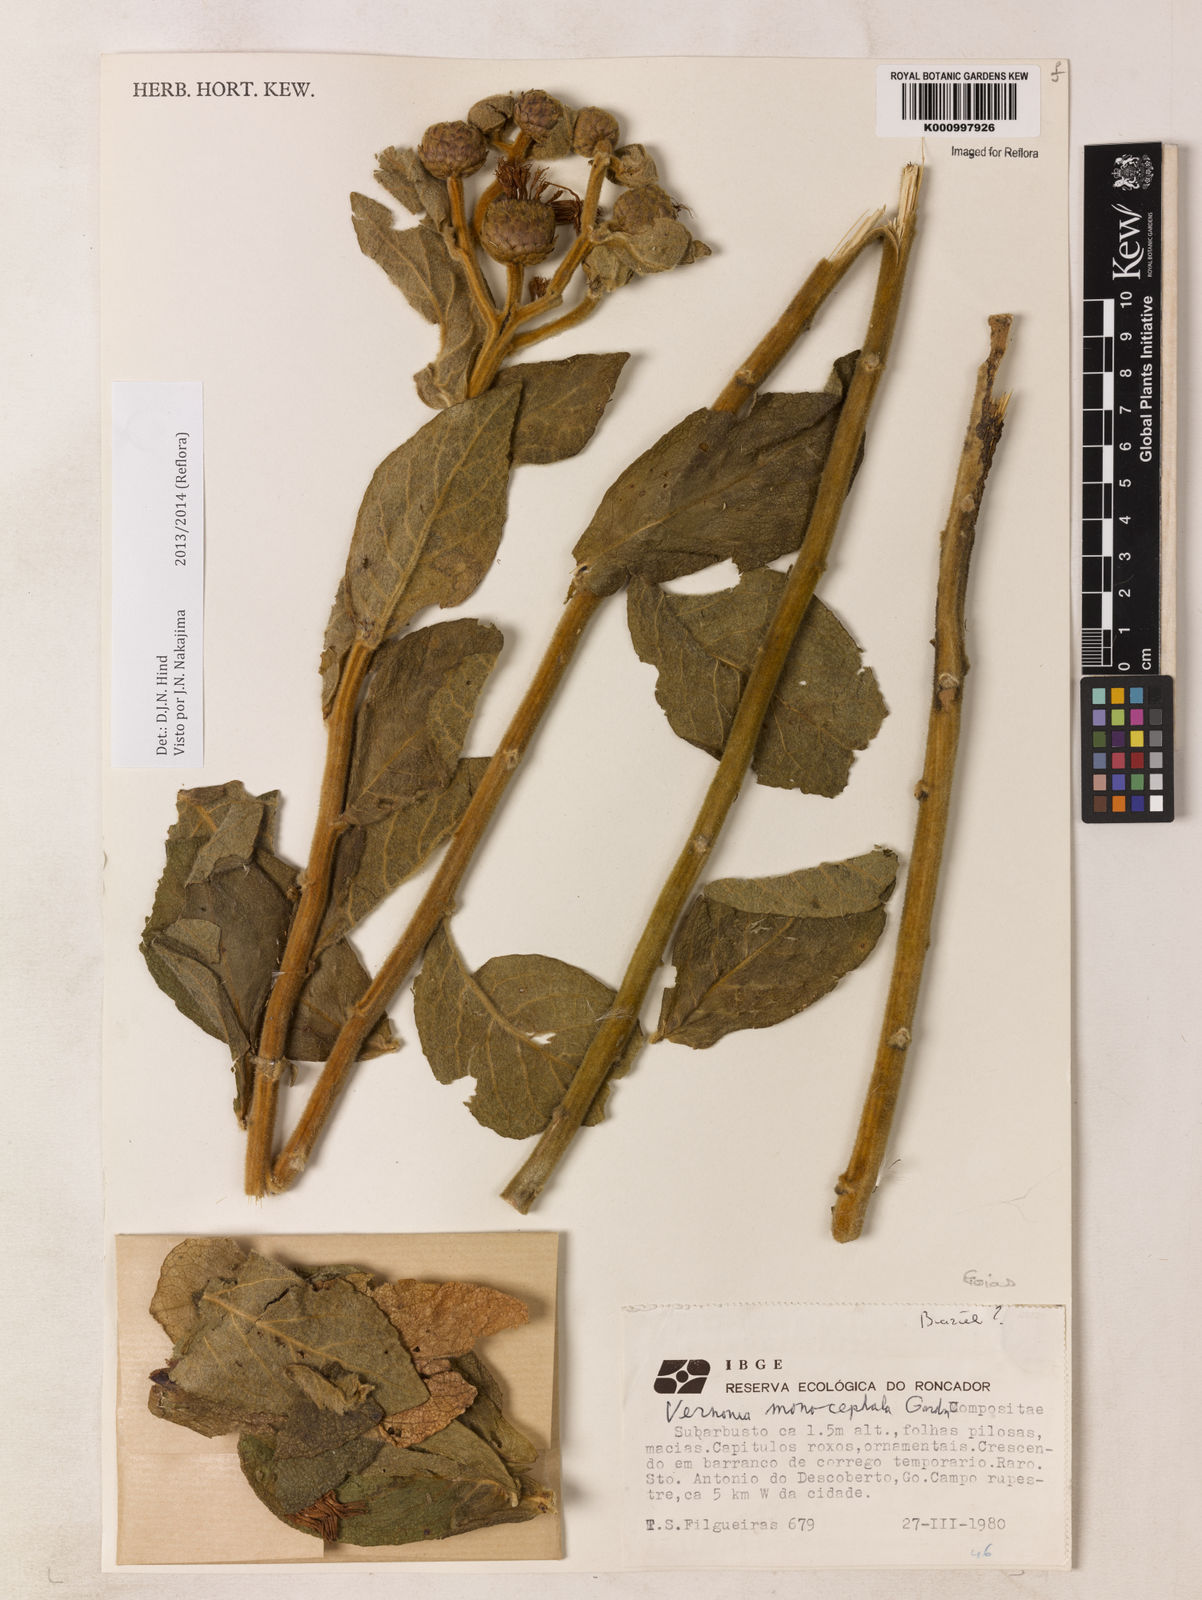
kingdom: Plantae
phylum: Tracheophyta
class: Magnoliopsida
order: Asterales
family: Asteraceae
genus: Lessingianthus
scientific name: Lessingianthus monocephalus
